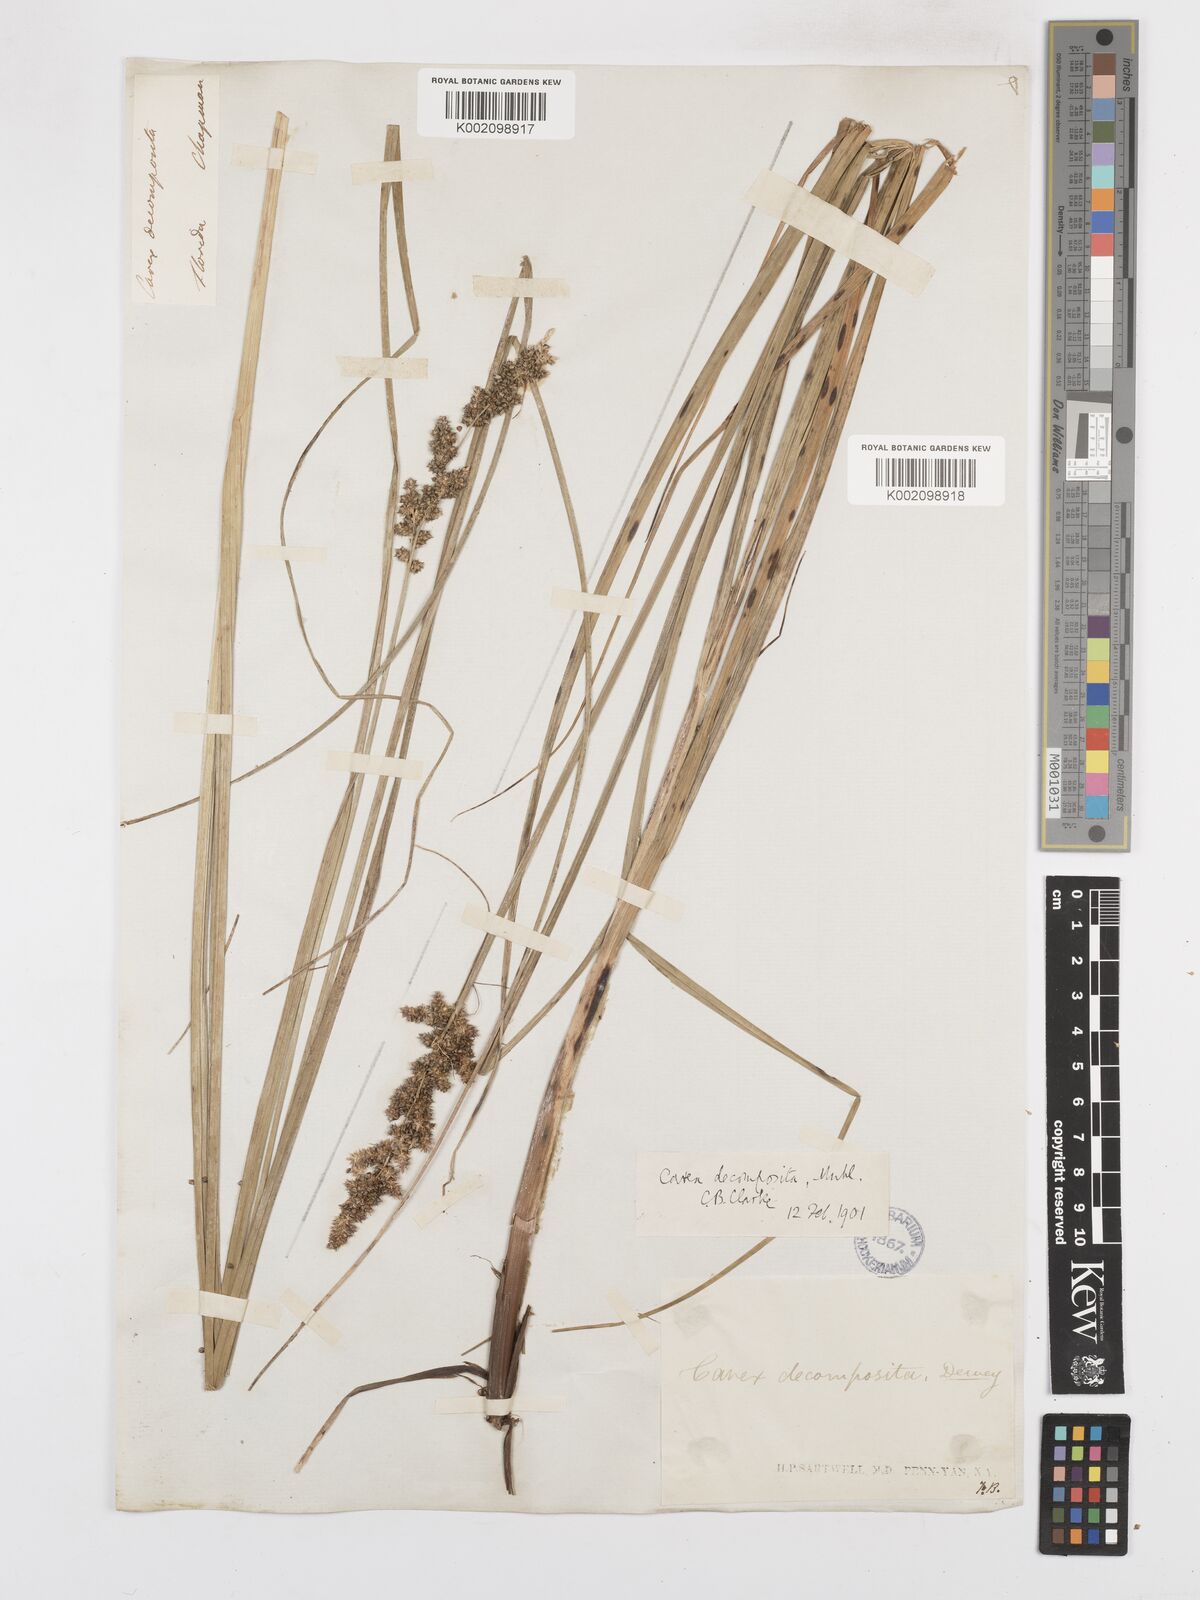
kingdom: Plantae
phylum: Tracheophyta
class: Liliopsida
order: Poales
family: Cyperaceae
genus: Carex
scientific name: Carex decomposita
